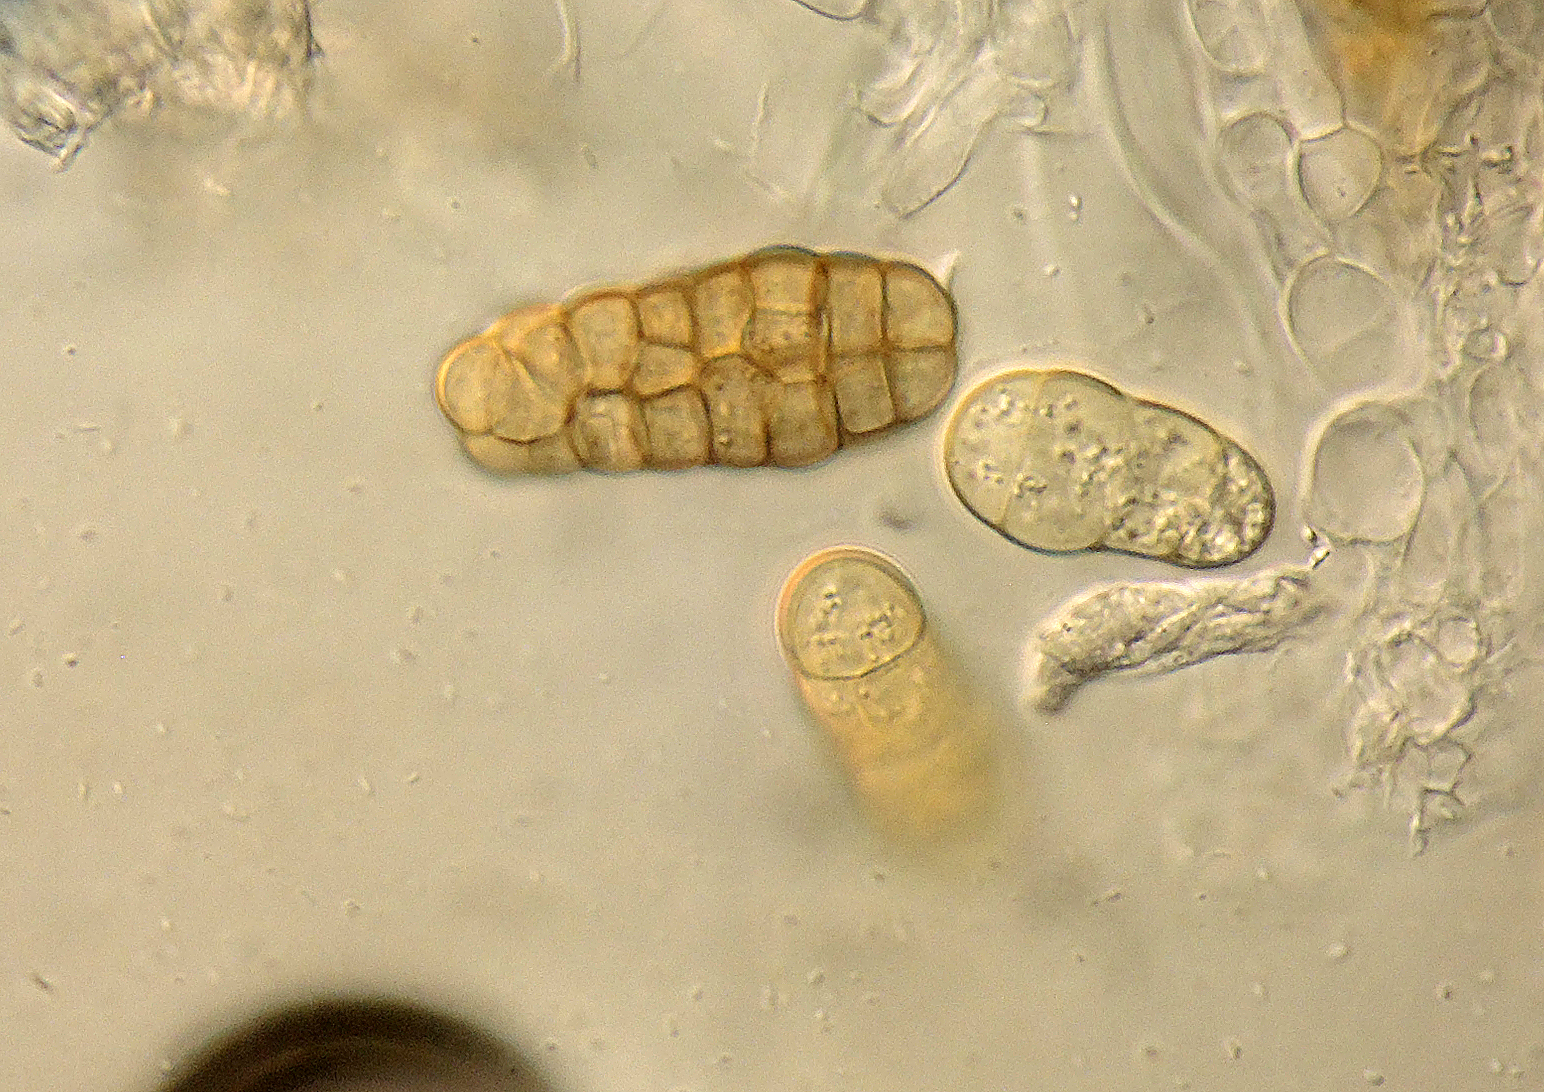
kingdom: Fungi
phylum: Ascomycota
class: Dothideomycetes
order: Pleosporales
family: Pleosporaceae
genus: Stemphylium
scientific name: Stemphylium vesicarium
